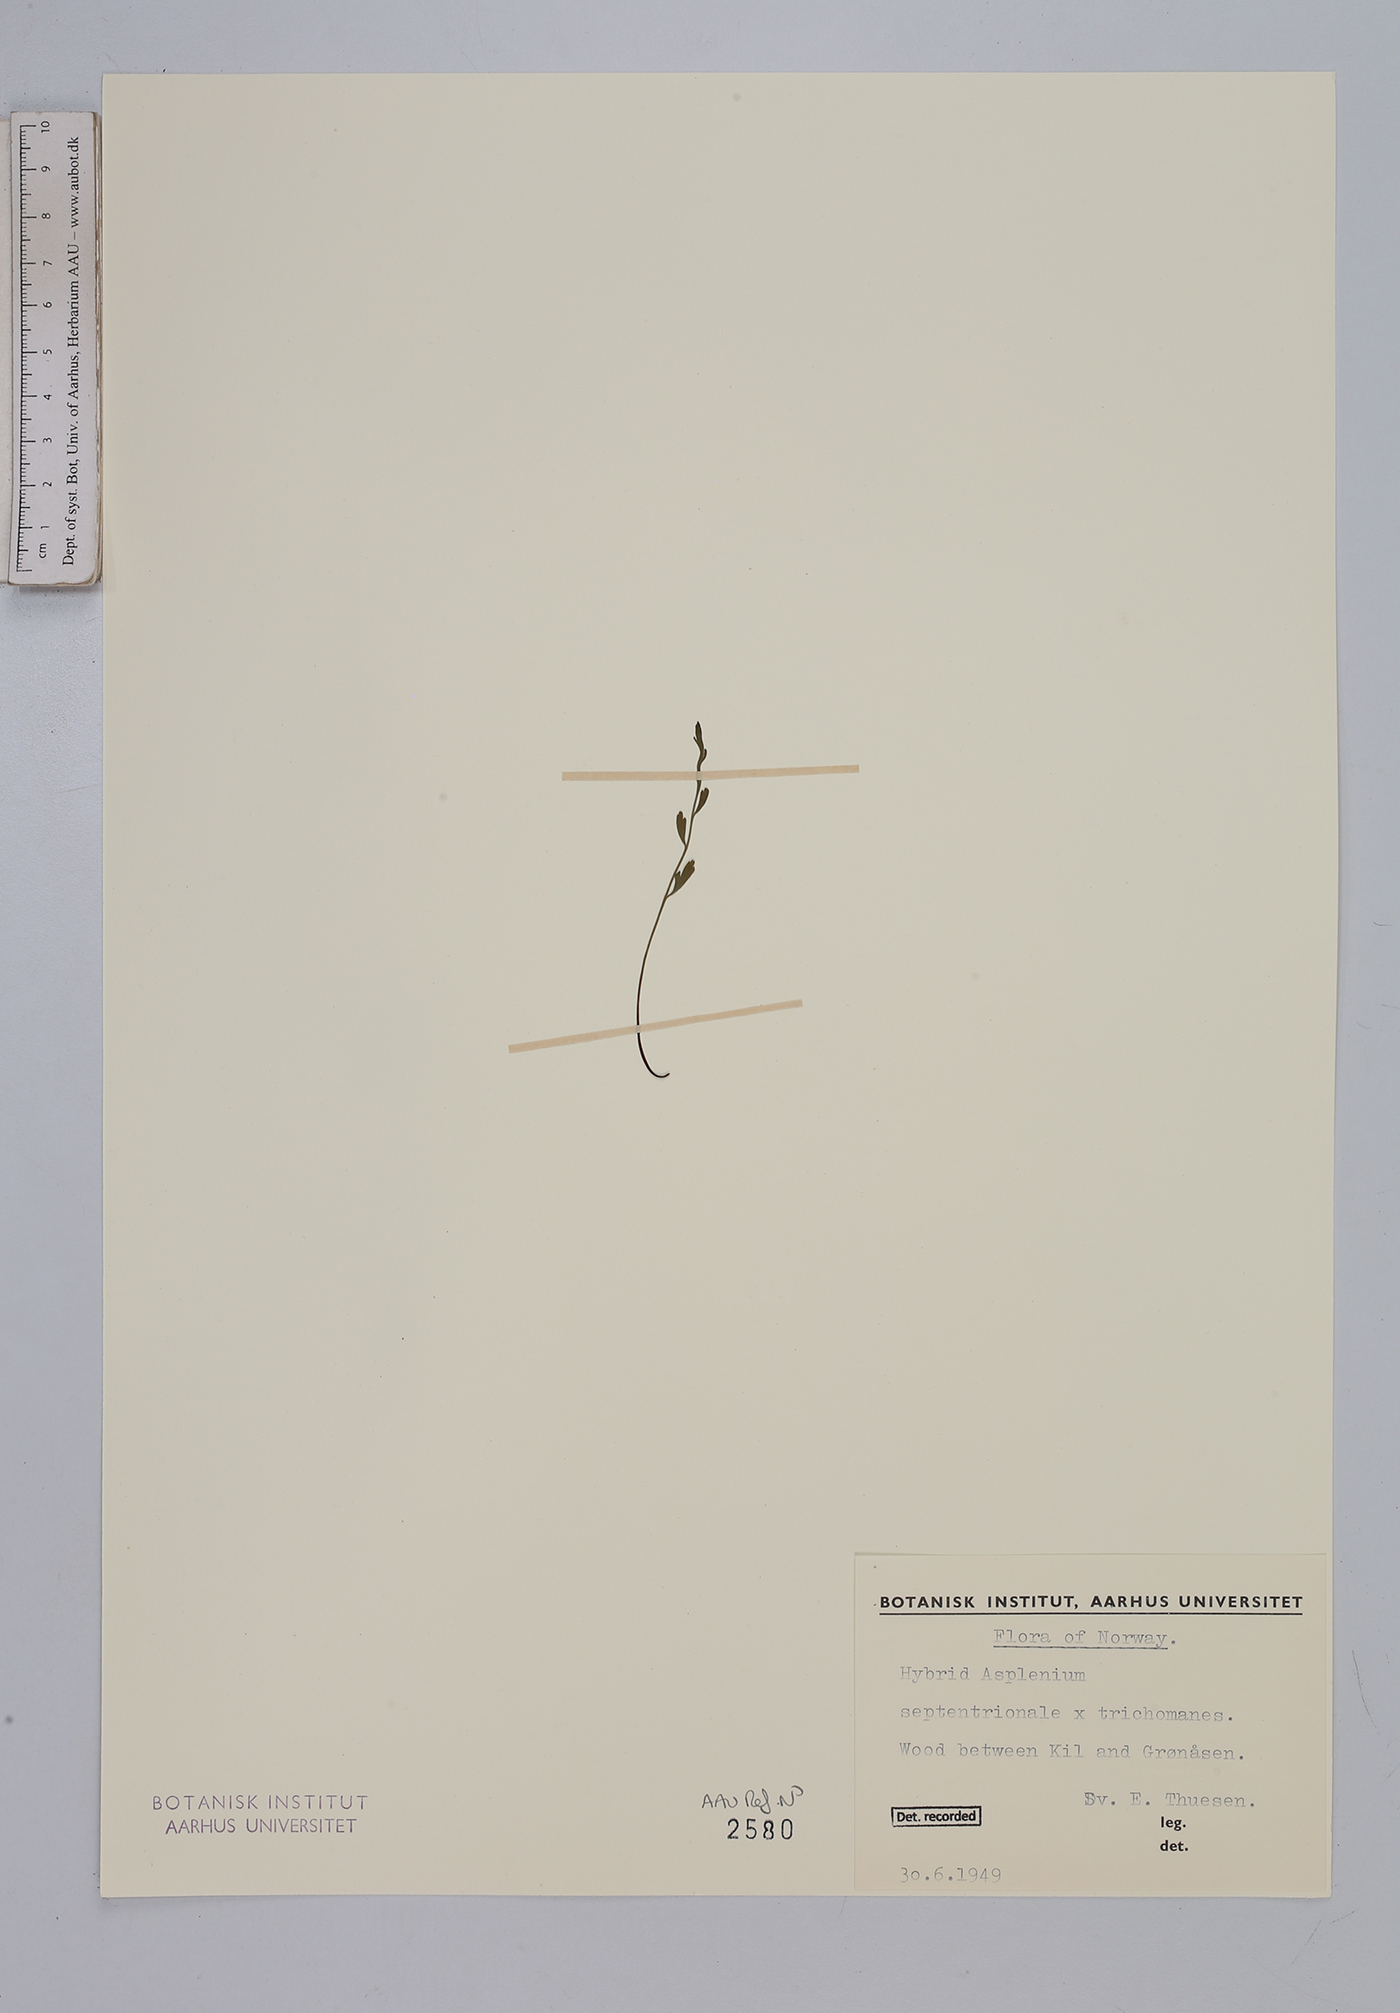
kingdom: Plantae
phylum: Tracheophyta
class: Polypodiopsida
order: Polypodiales
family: Aspleniaceae
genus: Asplenium
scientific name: Asplenium
